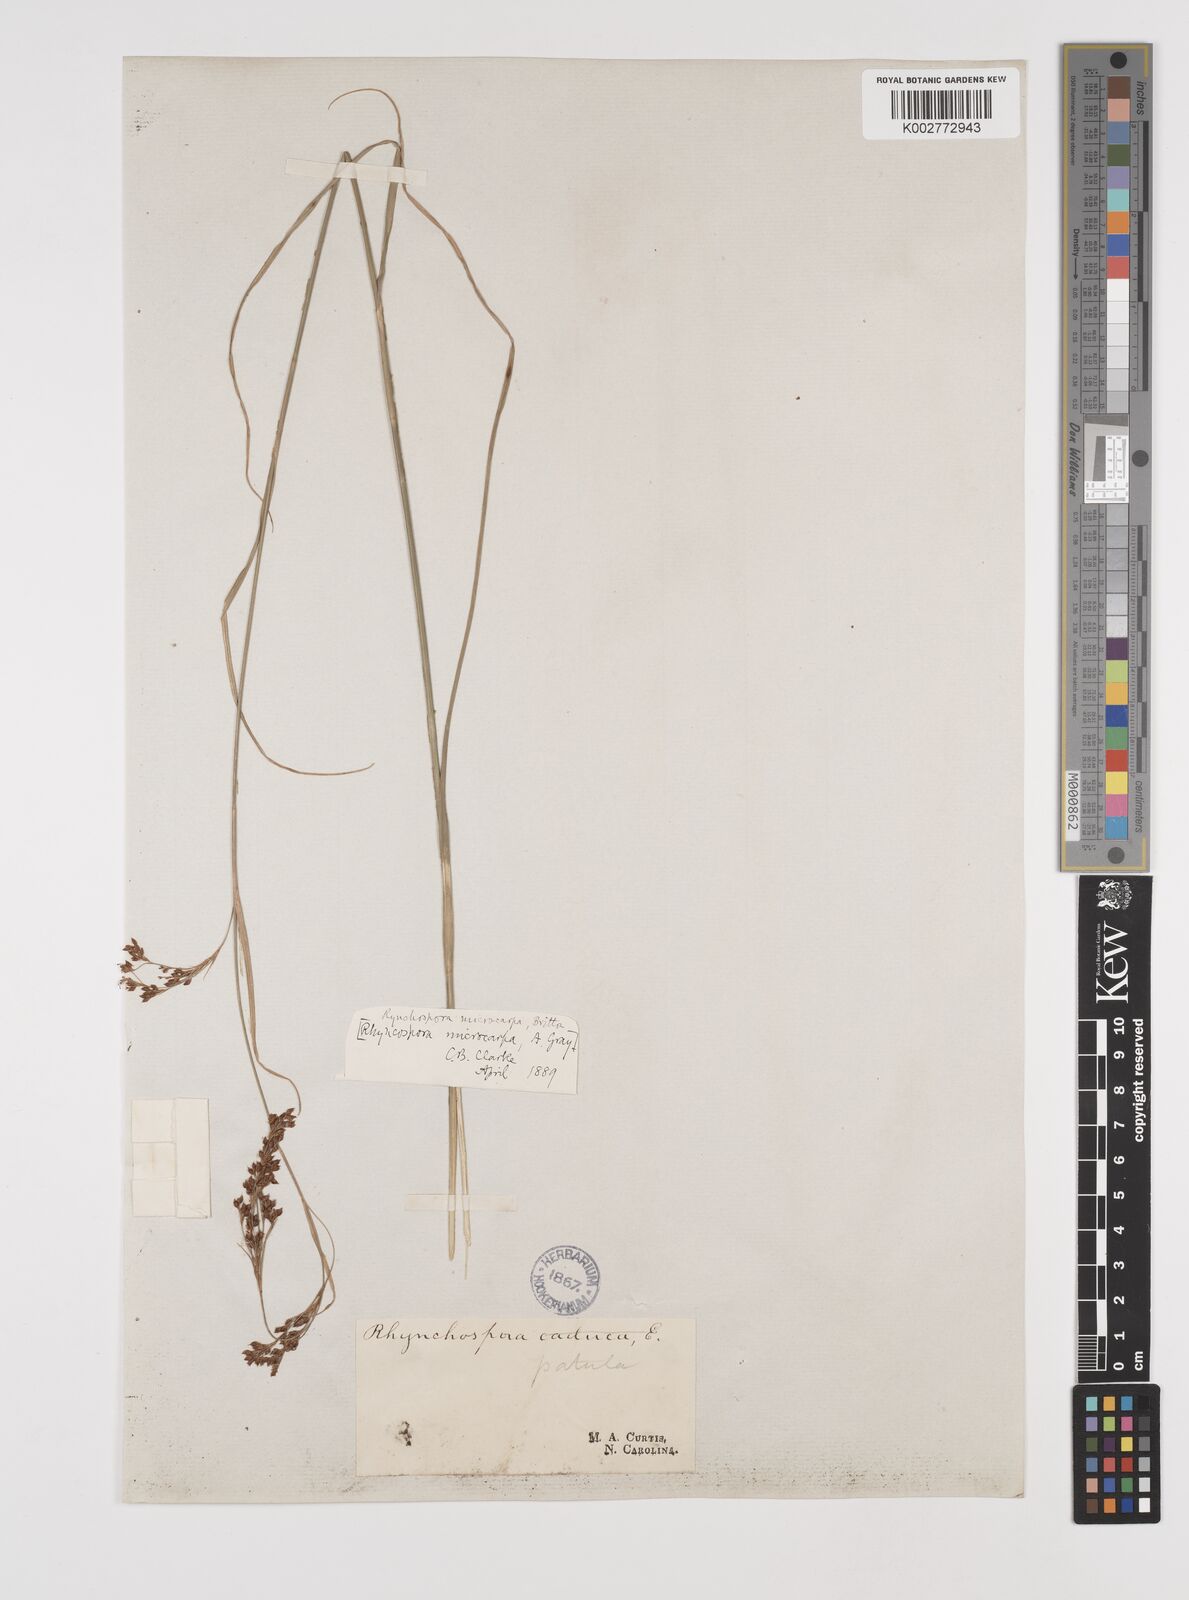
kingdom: Plantae
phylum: Tracheophyta
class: Liliopsida
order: Poales
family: Cyperaceae
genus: Rhynchospora
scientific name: Rhynchospora microcarpa
